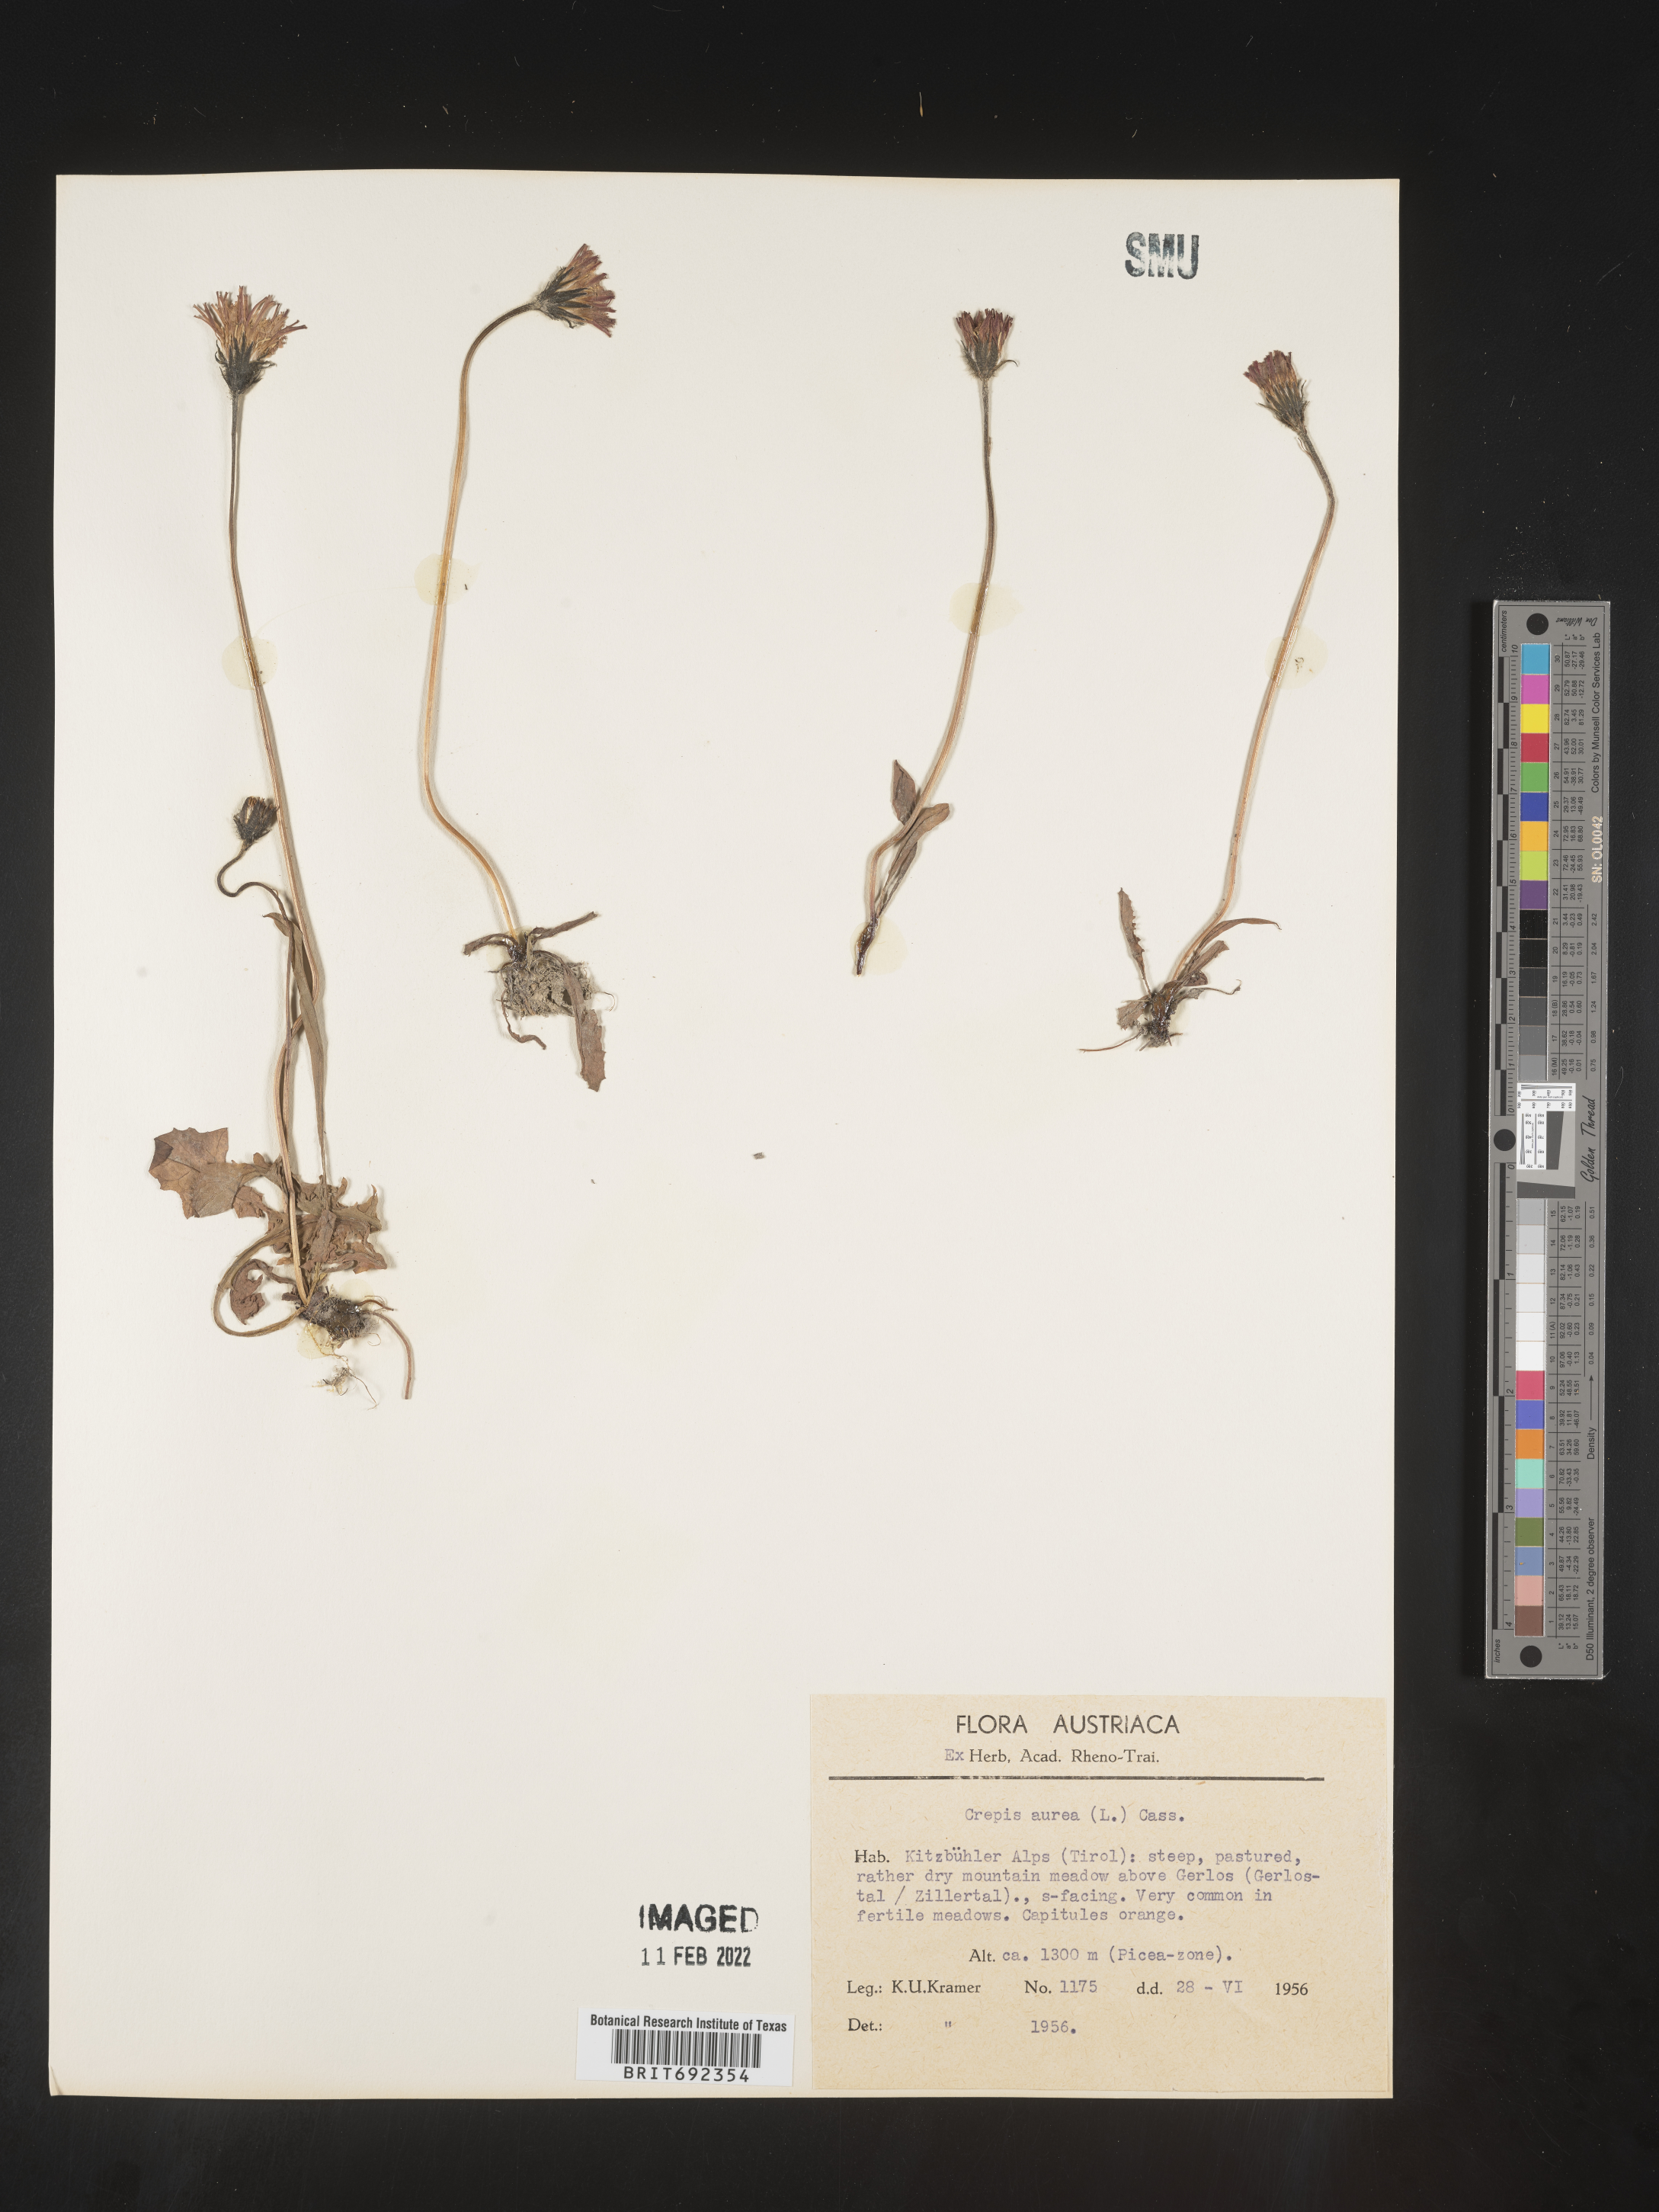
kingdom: Plantae
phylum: Tracheophyta
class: Magnoliopsida
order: Asterales
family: Asteraceae
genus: Crepis
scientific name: Crepis
